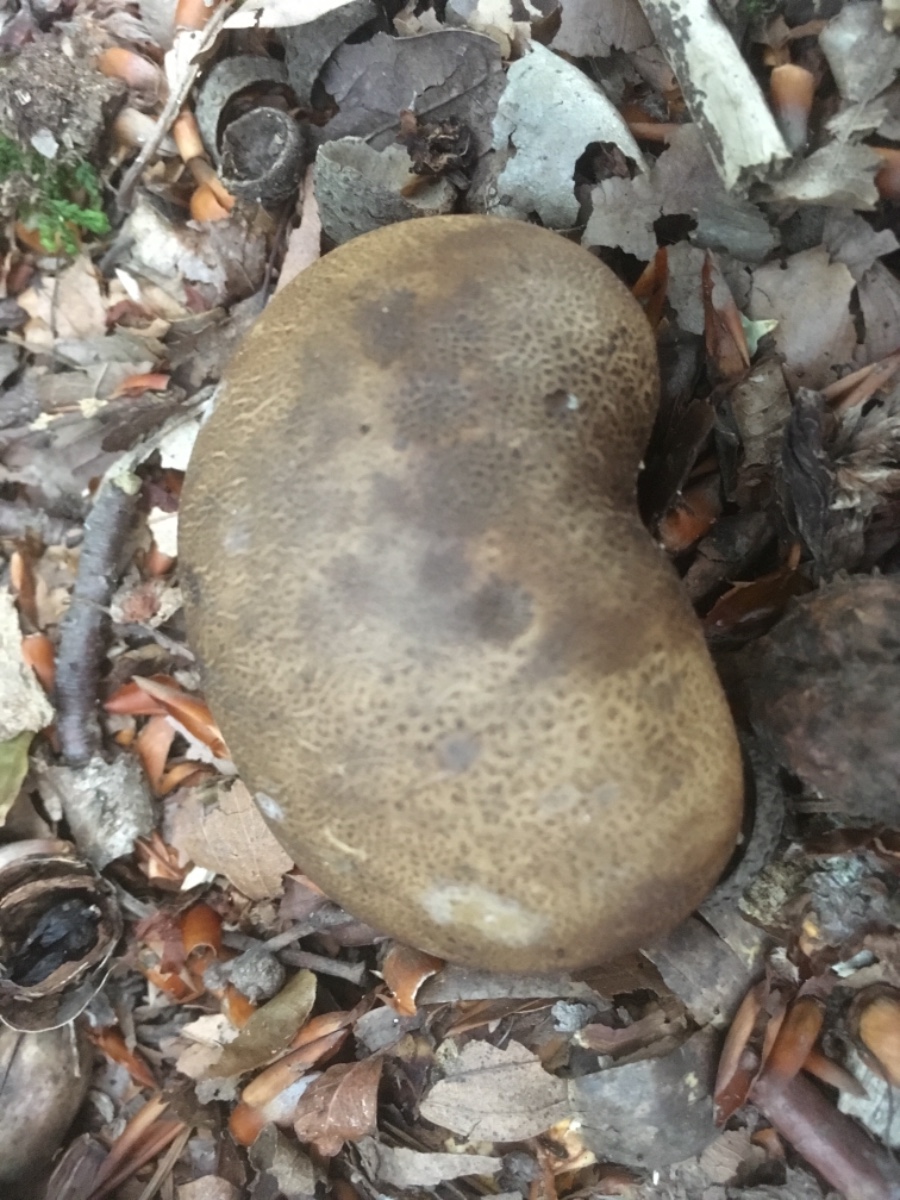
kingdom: Fungi
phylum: Basidiomycota
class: Agaricomycetes
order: Boletales
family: Sclerodermataceae
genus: Scleroderma
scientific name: Scleroderma verrucosum
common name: stilket bruskbold
